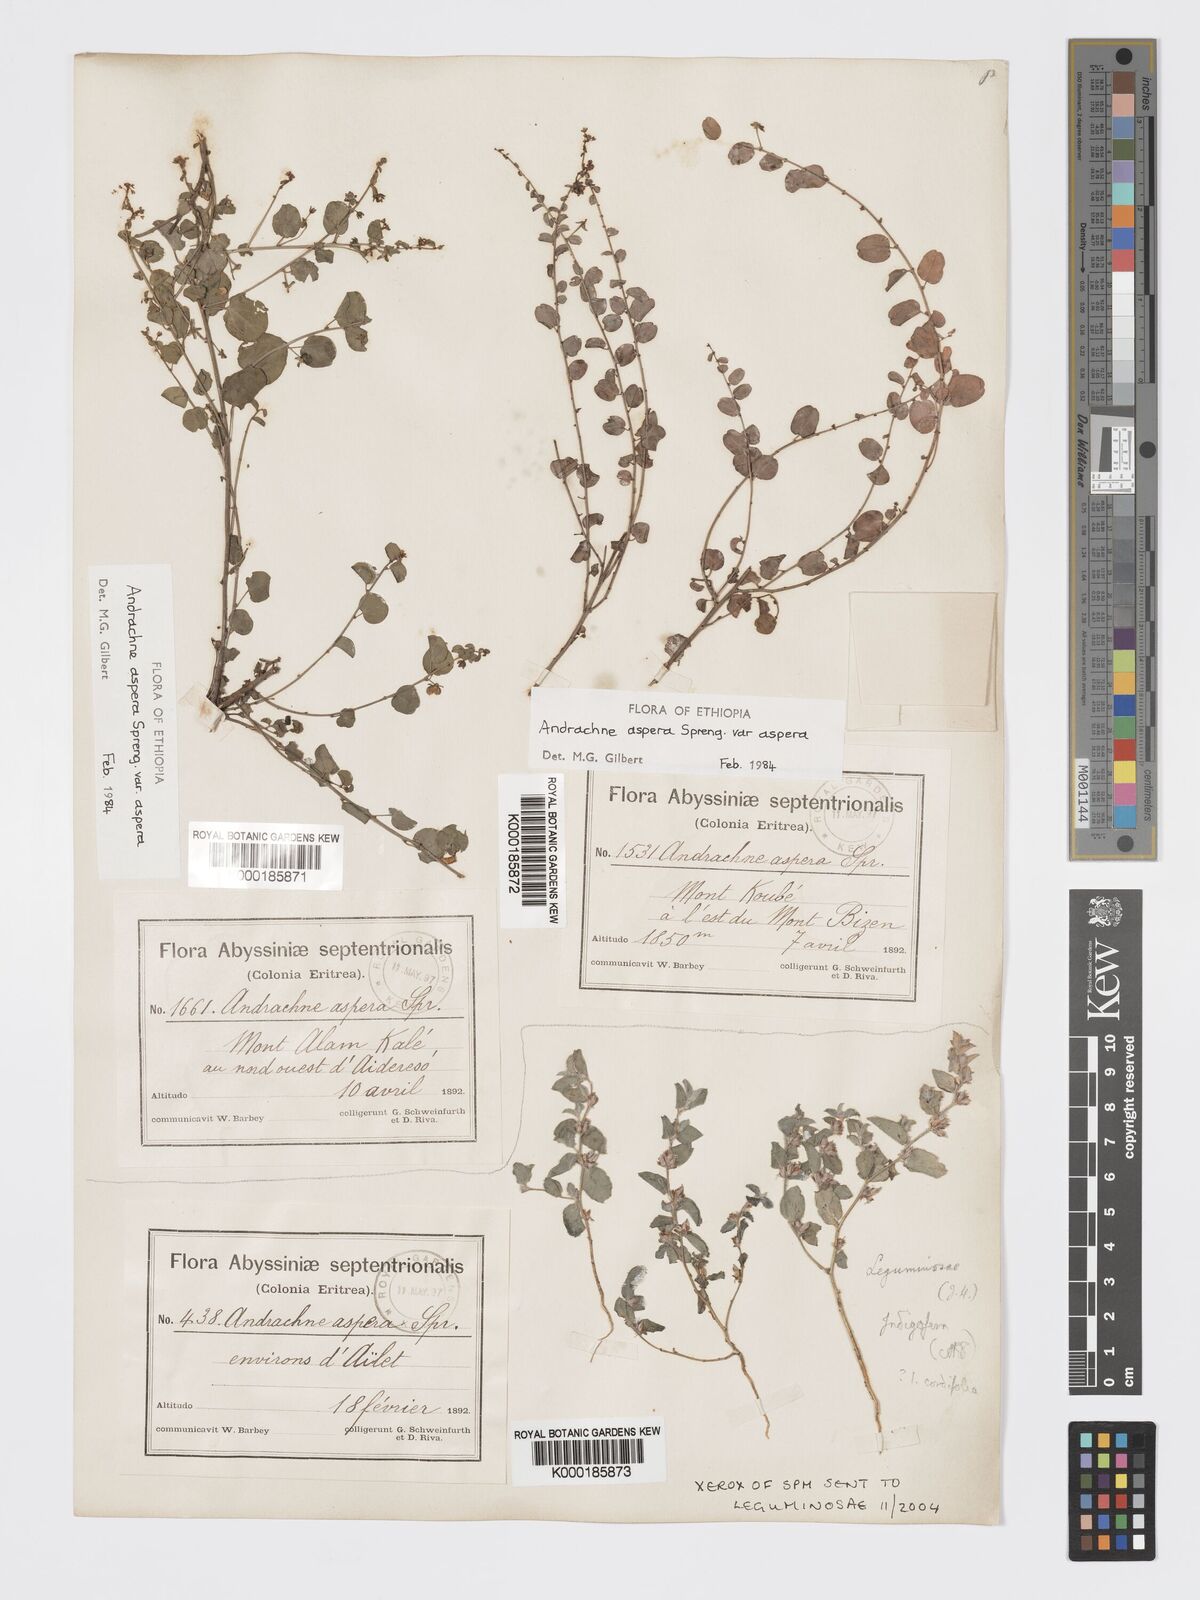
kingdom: Plantae
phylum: Tracheophyta
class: Magnoliopsida
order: Malpighiales
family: Phyllanthaceae
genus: Andrachne
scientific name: Andrachne aspera
